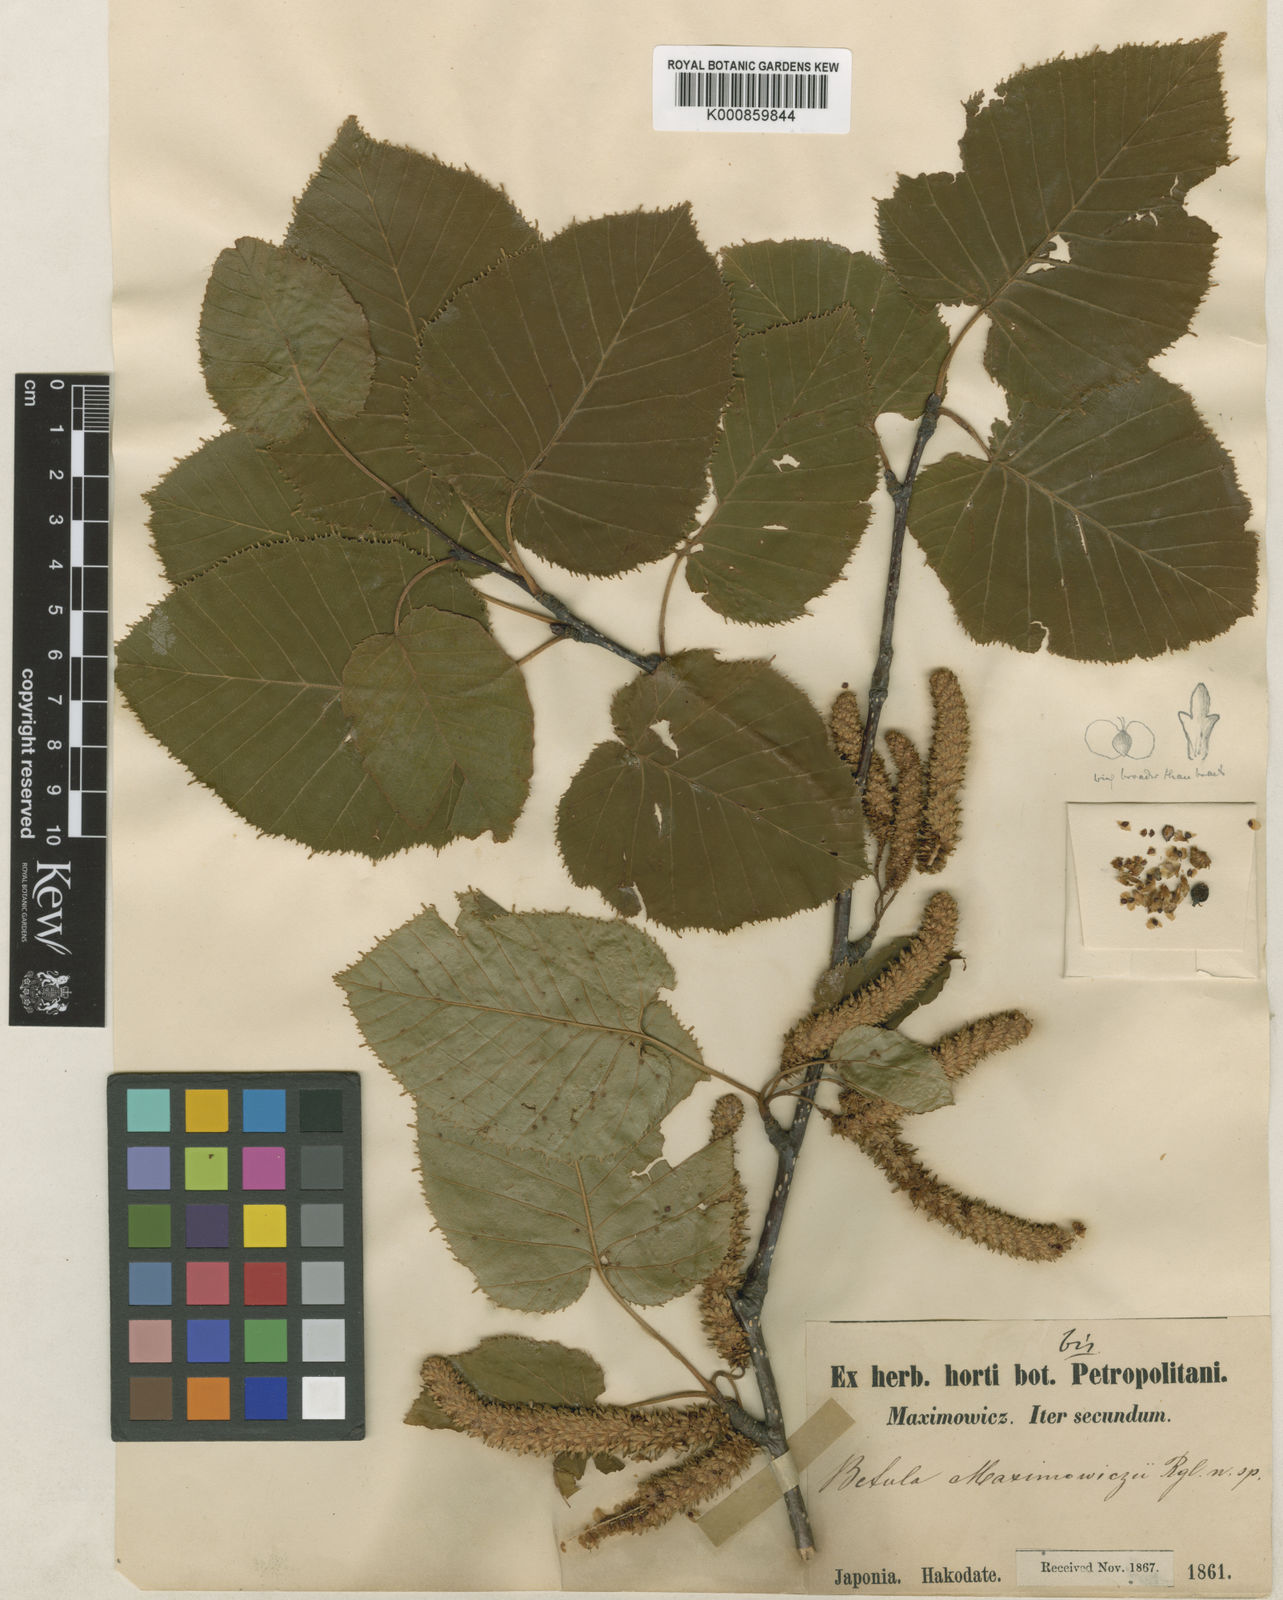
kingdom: Plantae
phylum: Tracheophyta
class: Magnoliopsida
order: Fagales
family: Betulaceae
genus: Betula
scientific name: Betula maximowicziana
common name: Monarch birch
